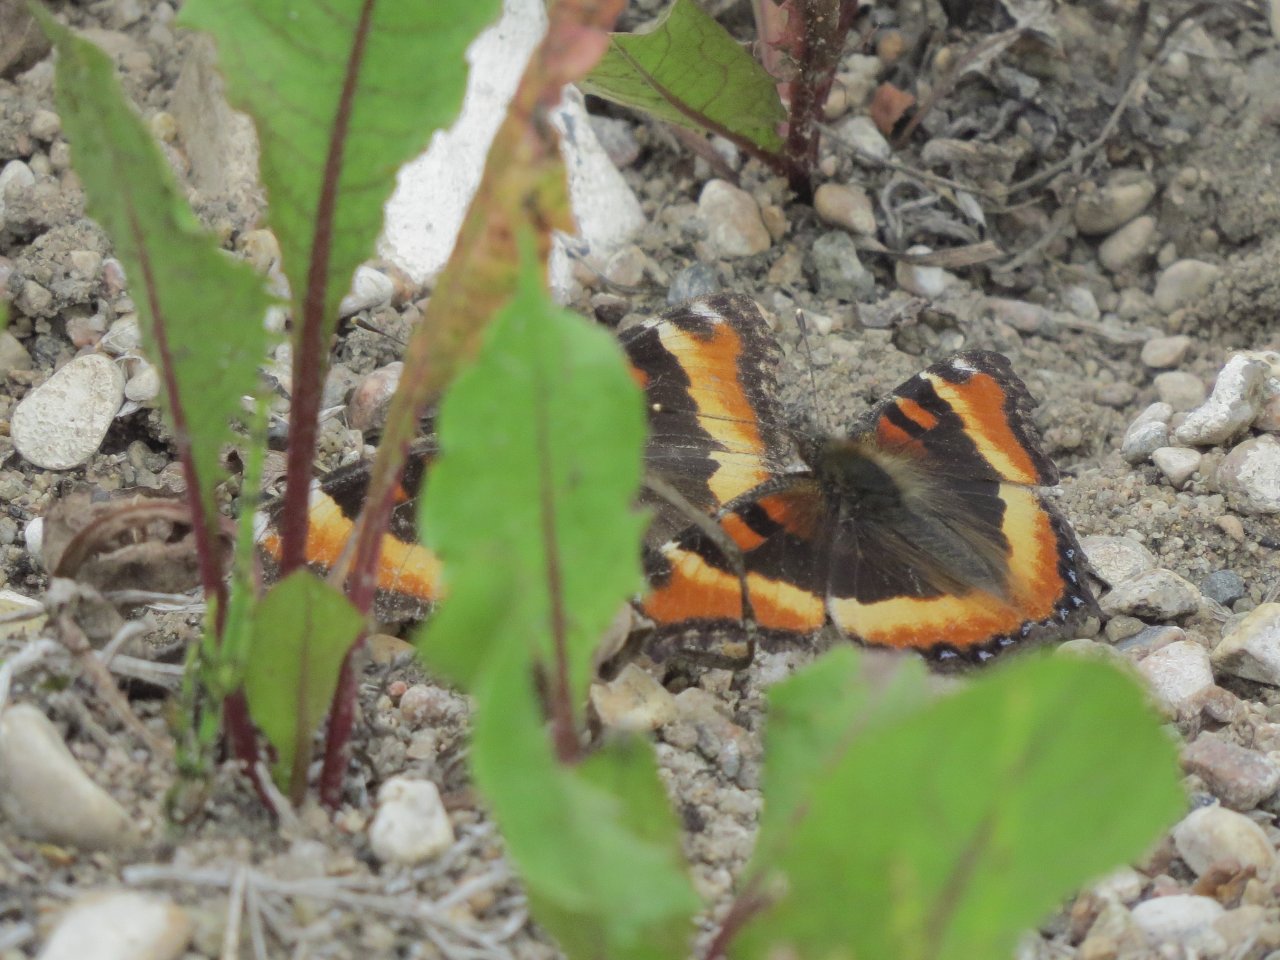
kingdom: Animalia
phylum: Arthropoda
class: Insecta
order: Lepidoptera
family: Nymphalidae
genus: Aglais
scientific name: Aglais milberti
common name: Milbert's Tortoiseshell
